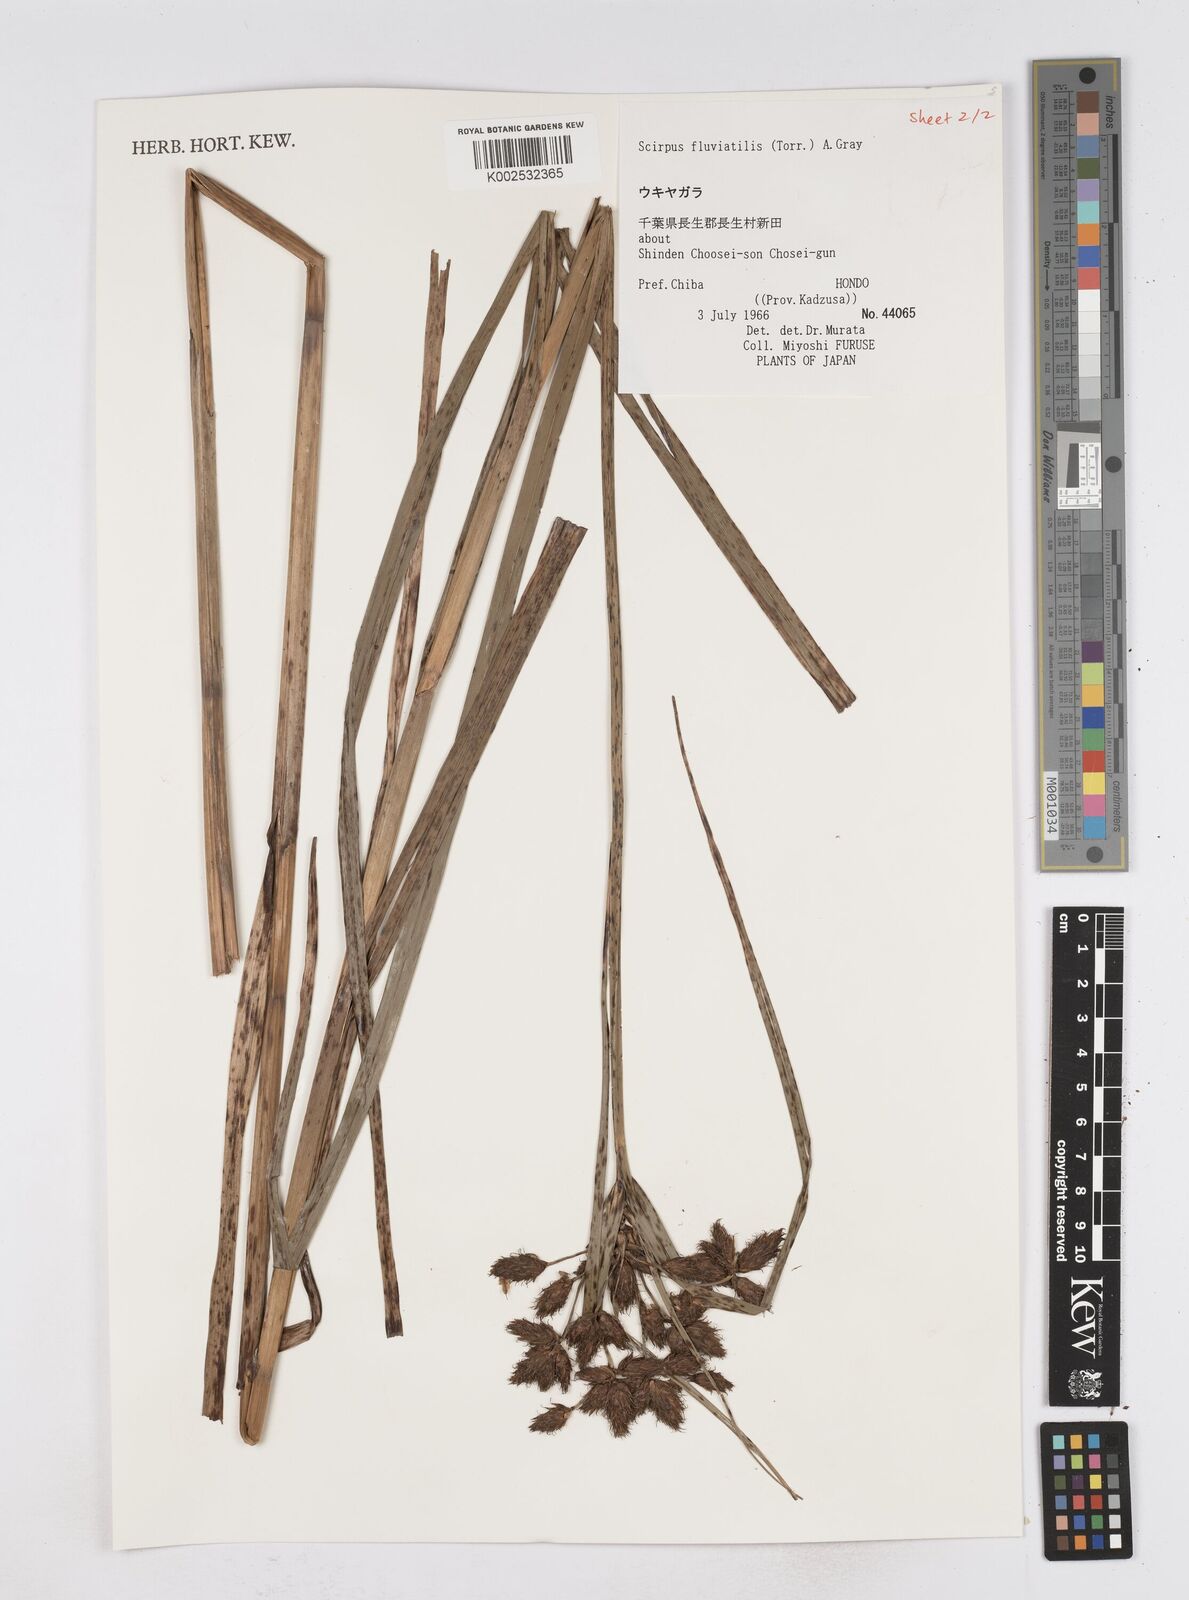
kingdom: Plantae
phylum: Tracheophyta
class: Liliopsida
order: Poales
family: Cyperaceae
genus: Bolboschoenus
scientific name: Bolboschoenus maritimus
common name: Sea club-rush
